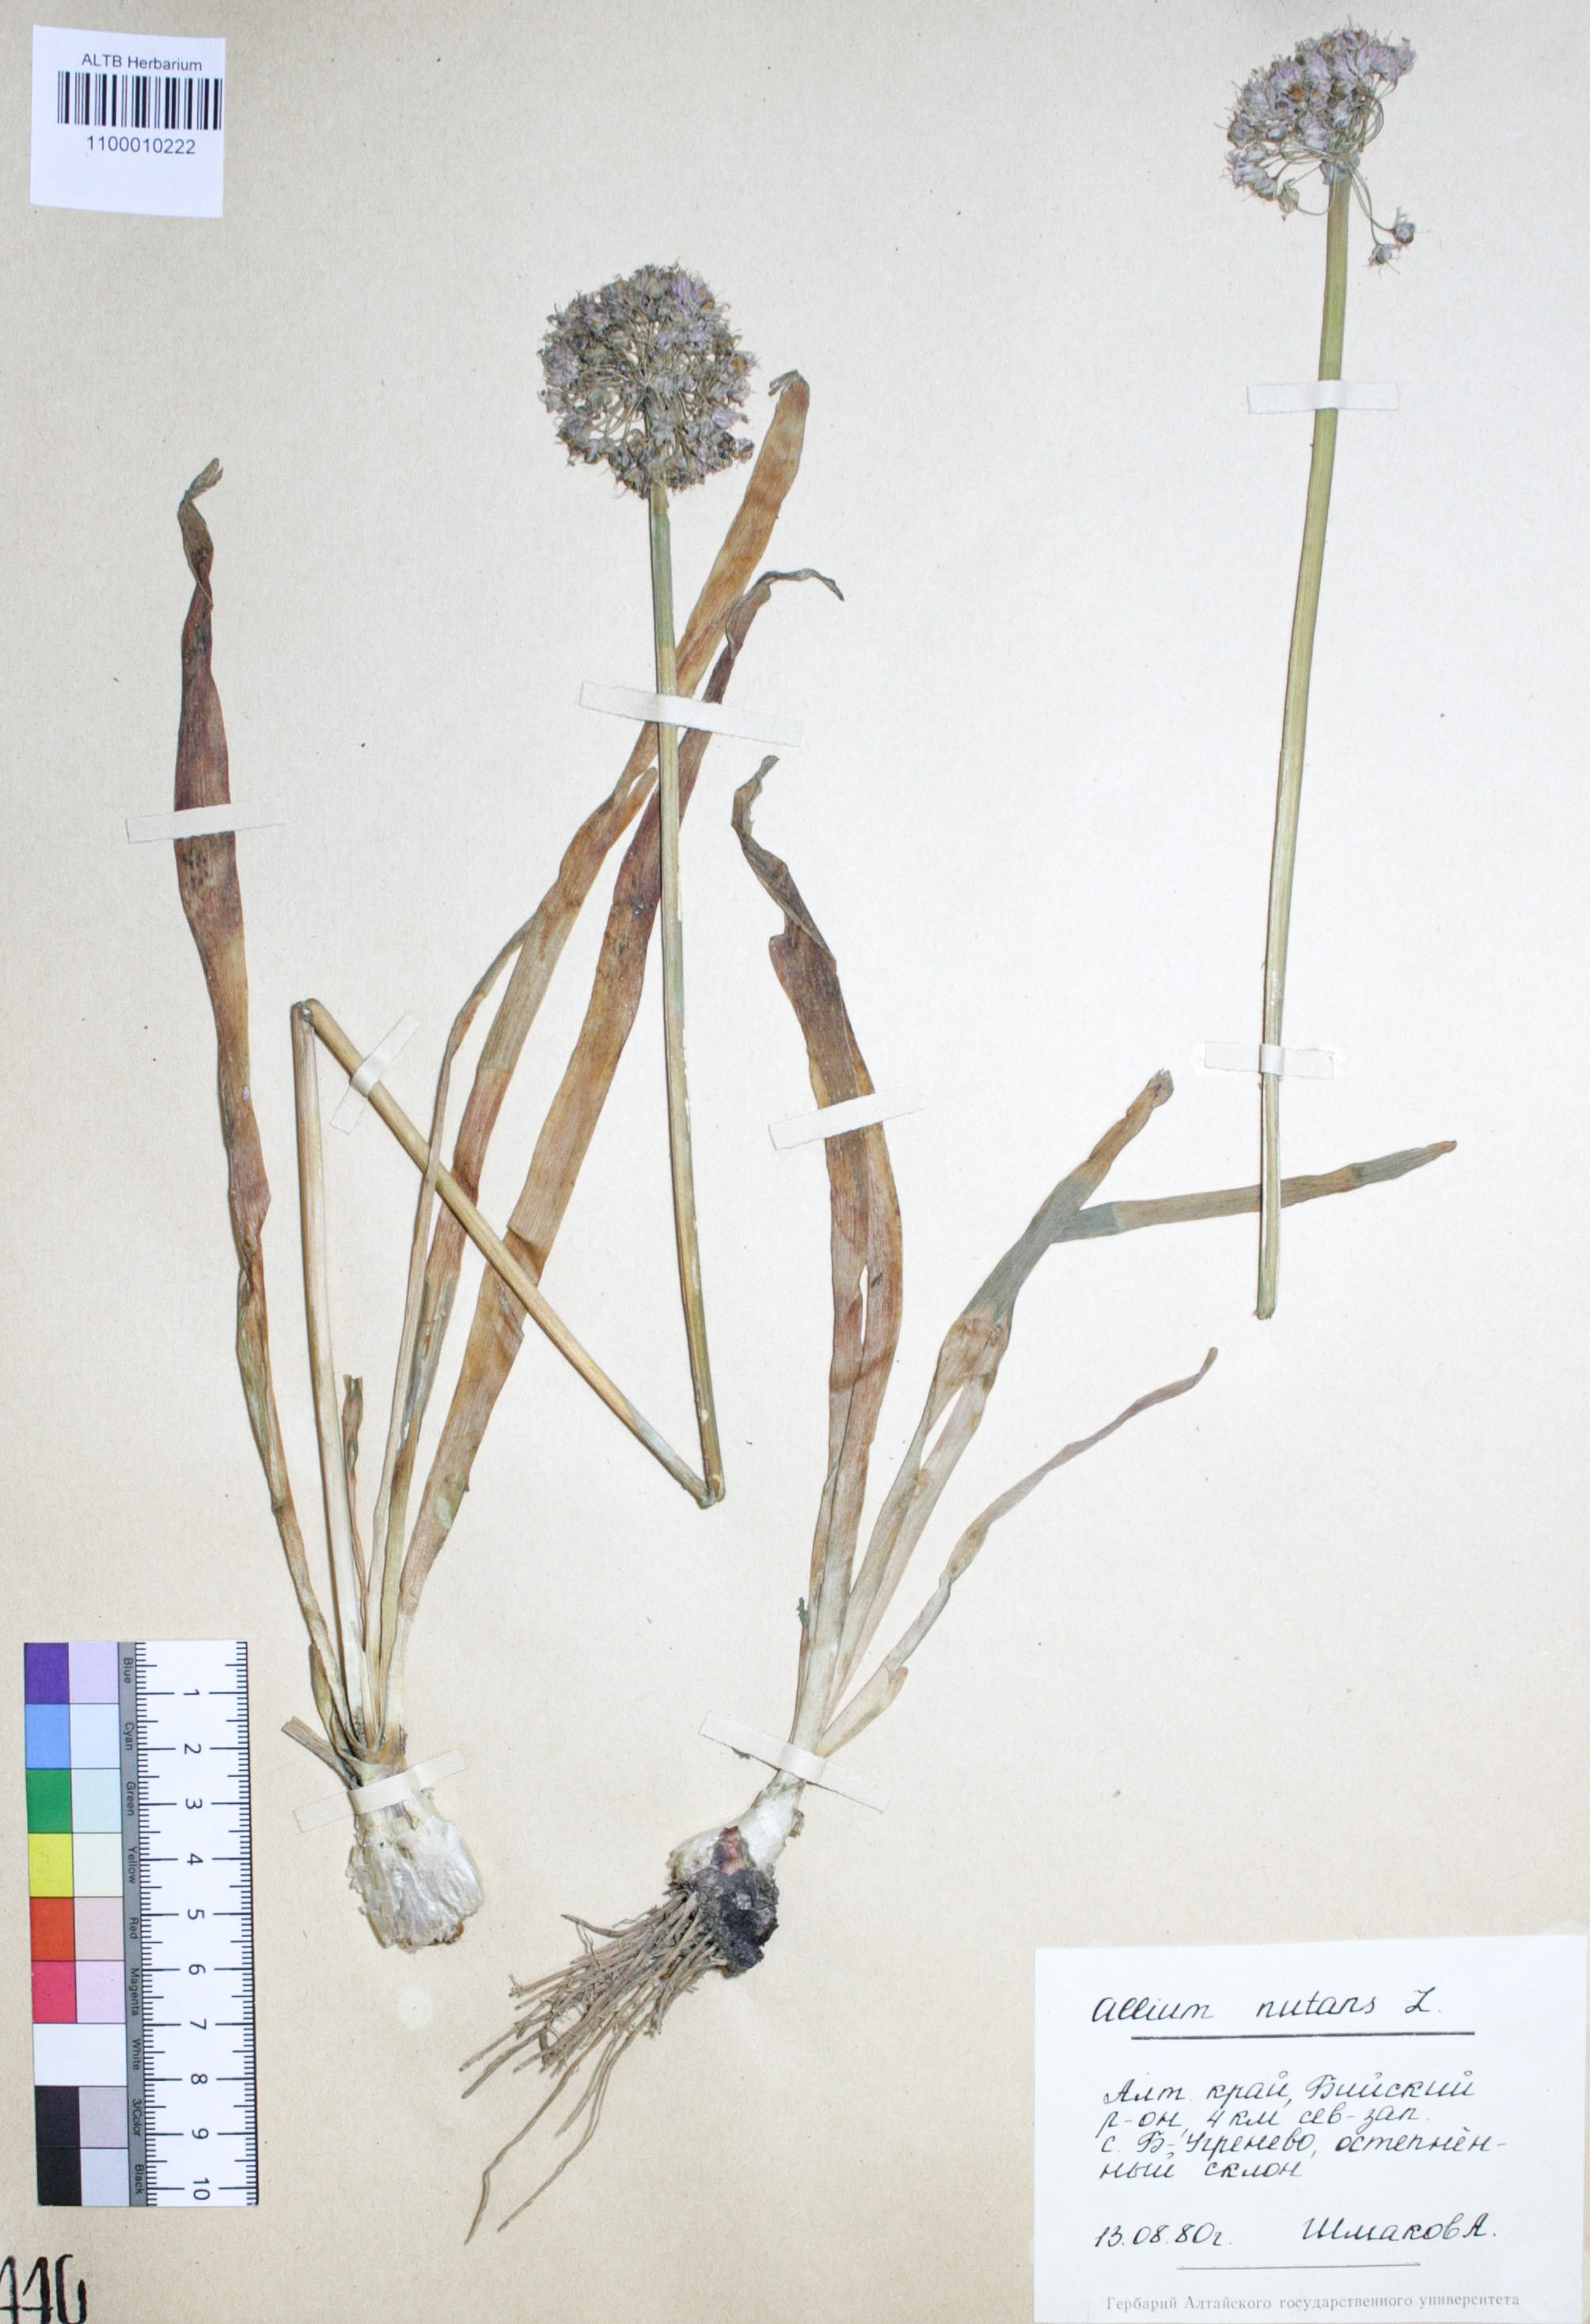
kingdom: Plantae
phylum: Tracheophyta
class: Liliopsida
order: Asparagales
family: Amaryllidaceae
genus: Allium
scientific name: Allium nutans
